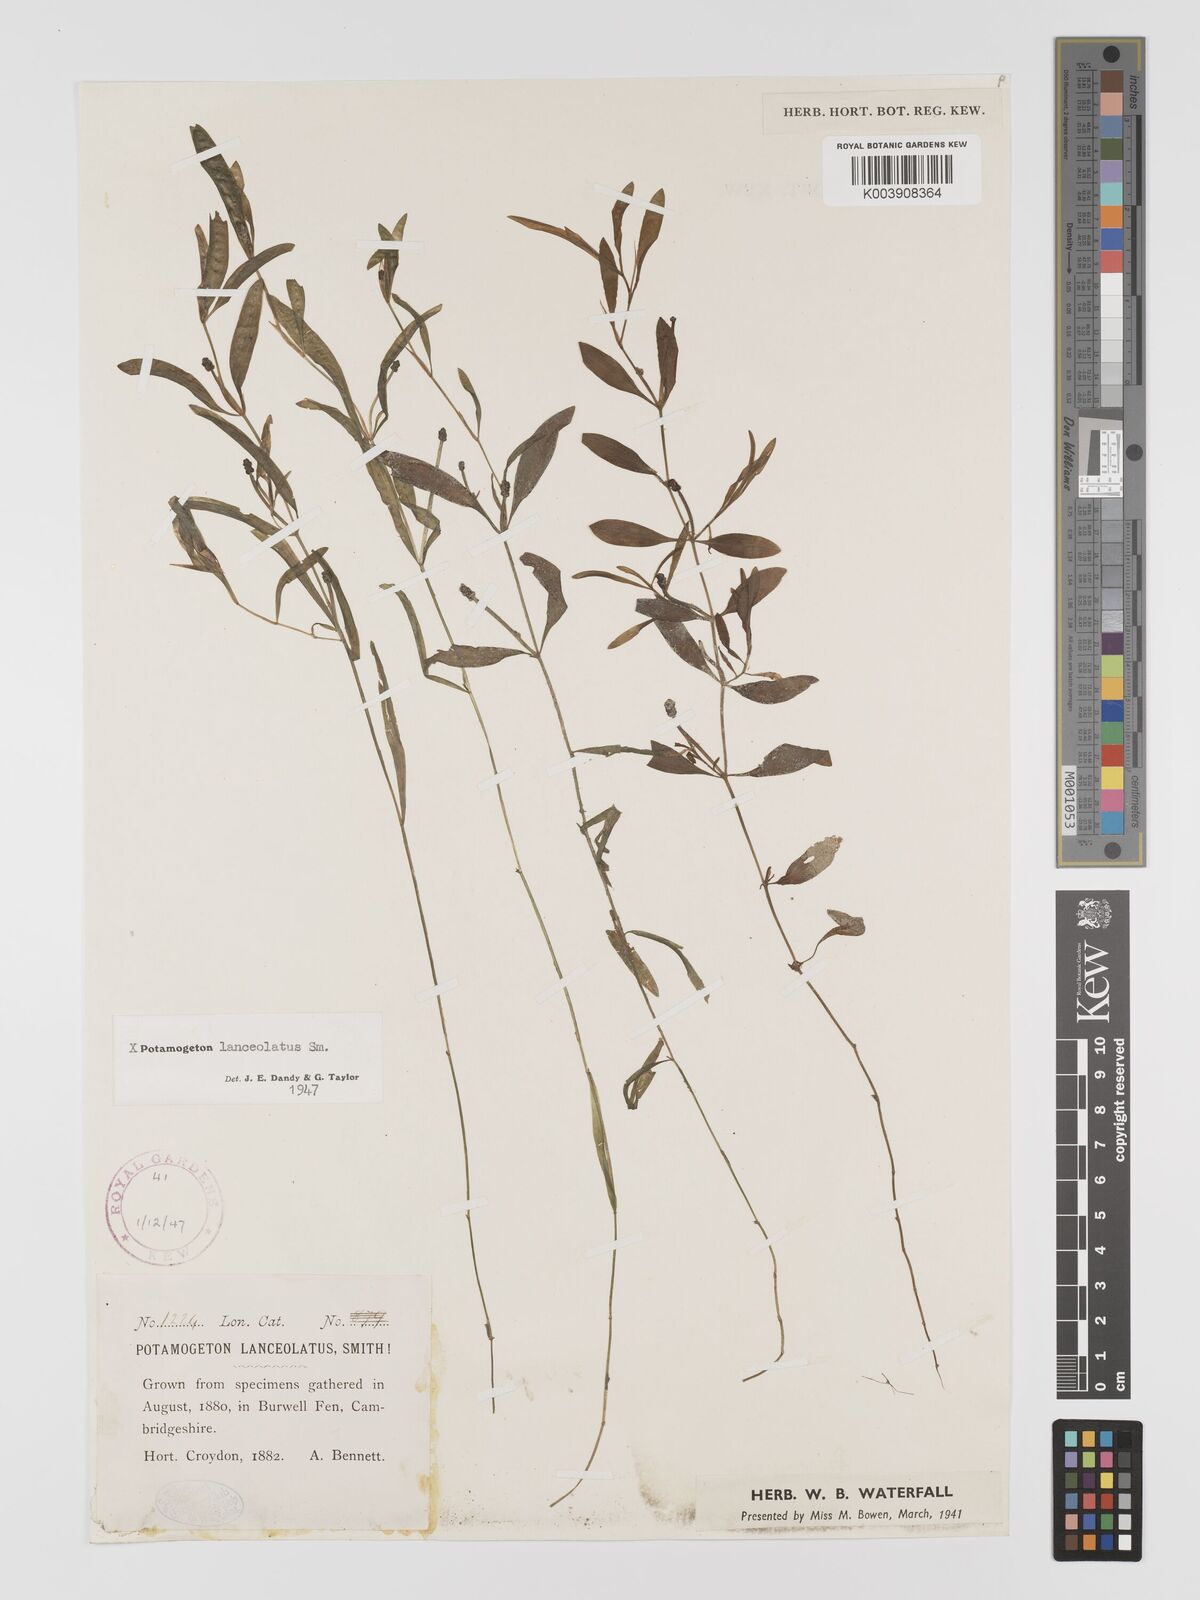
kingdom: Plantae
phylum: Tracheophyta
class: Liliopsida
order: Alismatales
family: Potamogetonaceae
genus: Potamogeton
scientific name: Potamogeton berchtoldii
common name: Small pondweed
